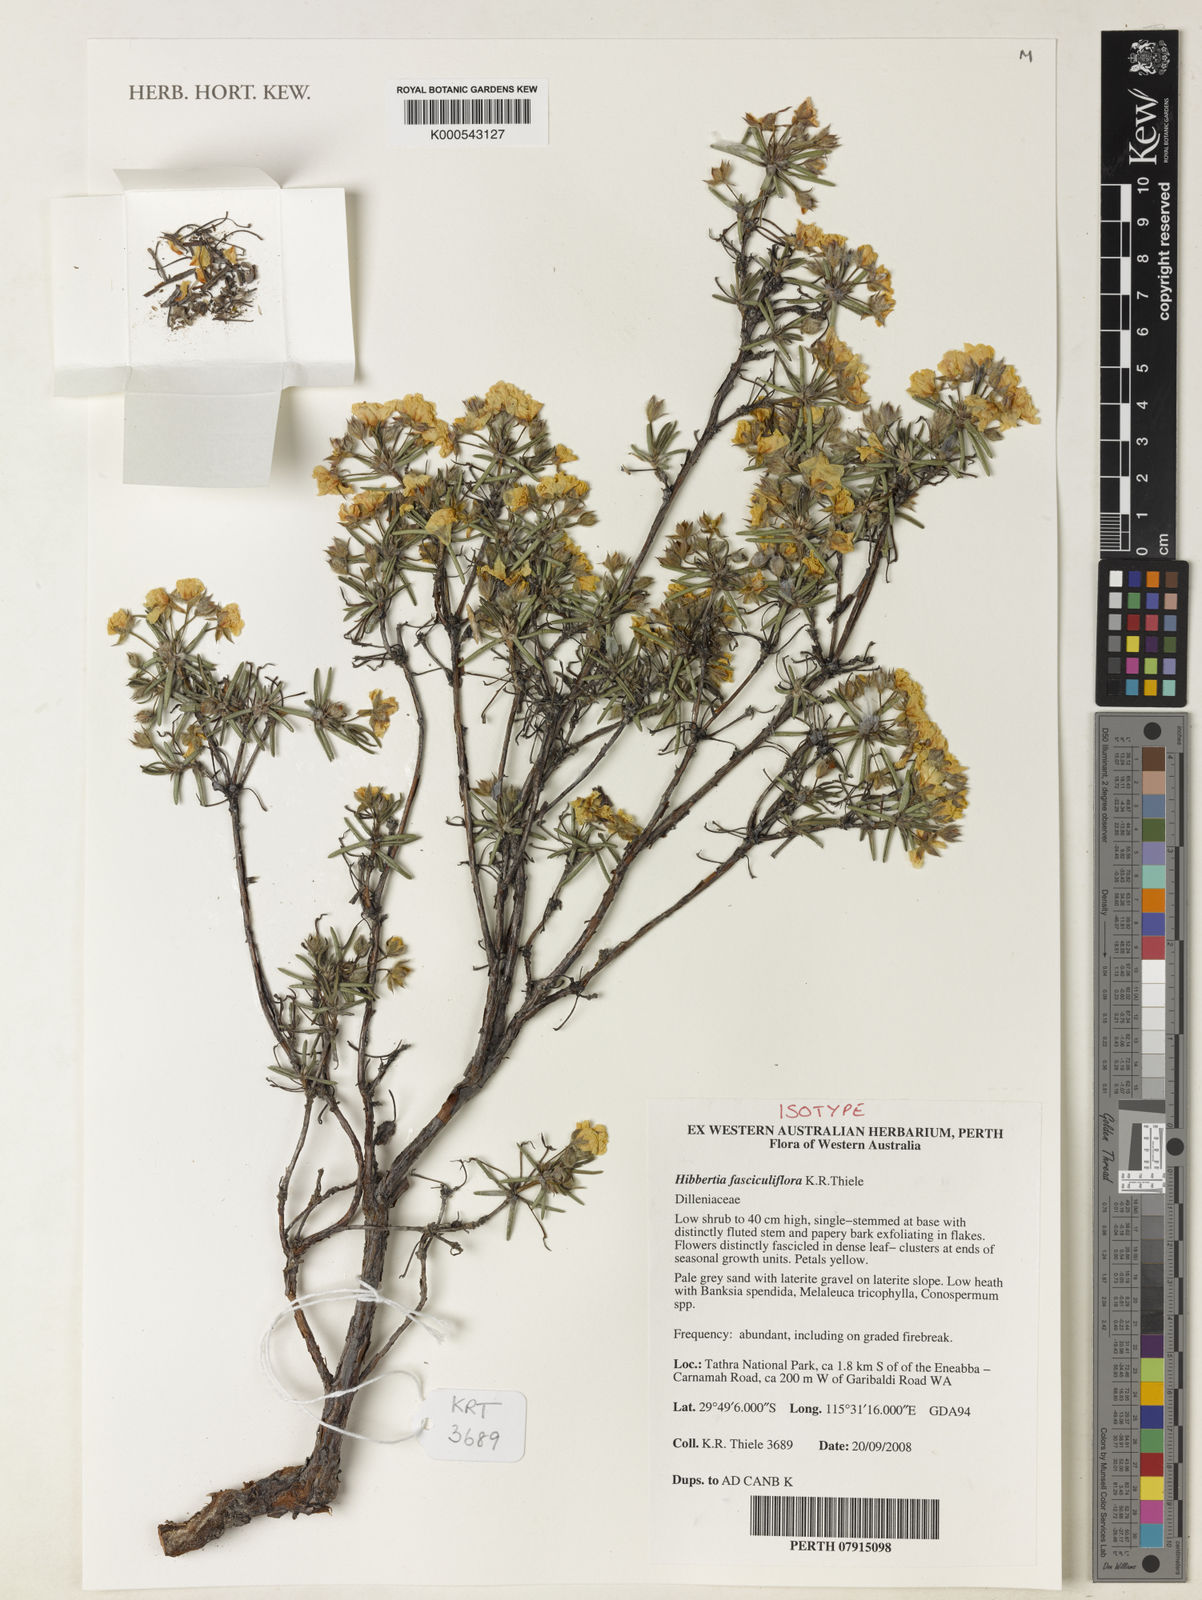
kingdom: Plantae
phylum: Tracheophyta
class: Magnoliopsida
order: Dilleniales
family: Dilleniaceae
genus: Hibbertia
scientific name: Hibbertia fasciculiflora
